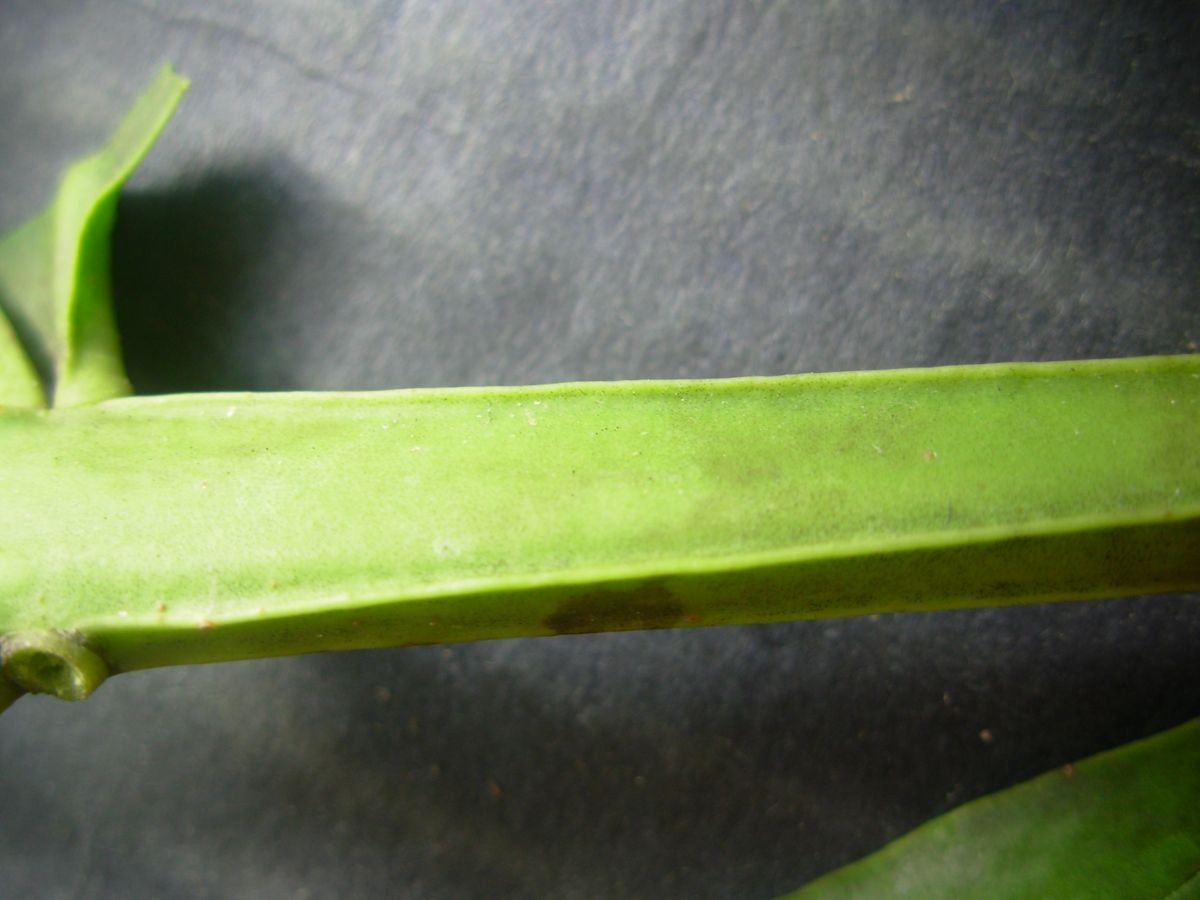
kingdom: Plantae
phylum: Tracheophyta
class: Magnoliopsida
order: Santalales
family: Loranthaceae
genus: Psittacanthus
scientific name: Psittacanthus schiedeanus
